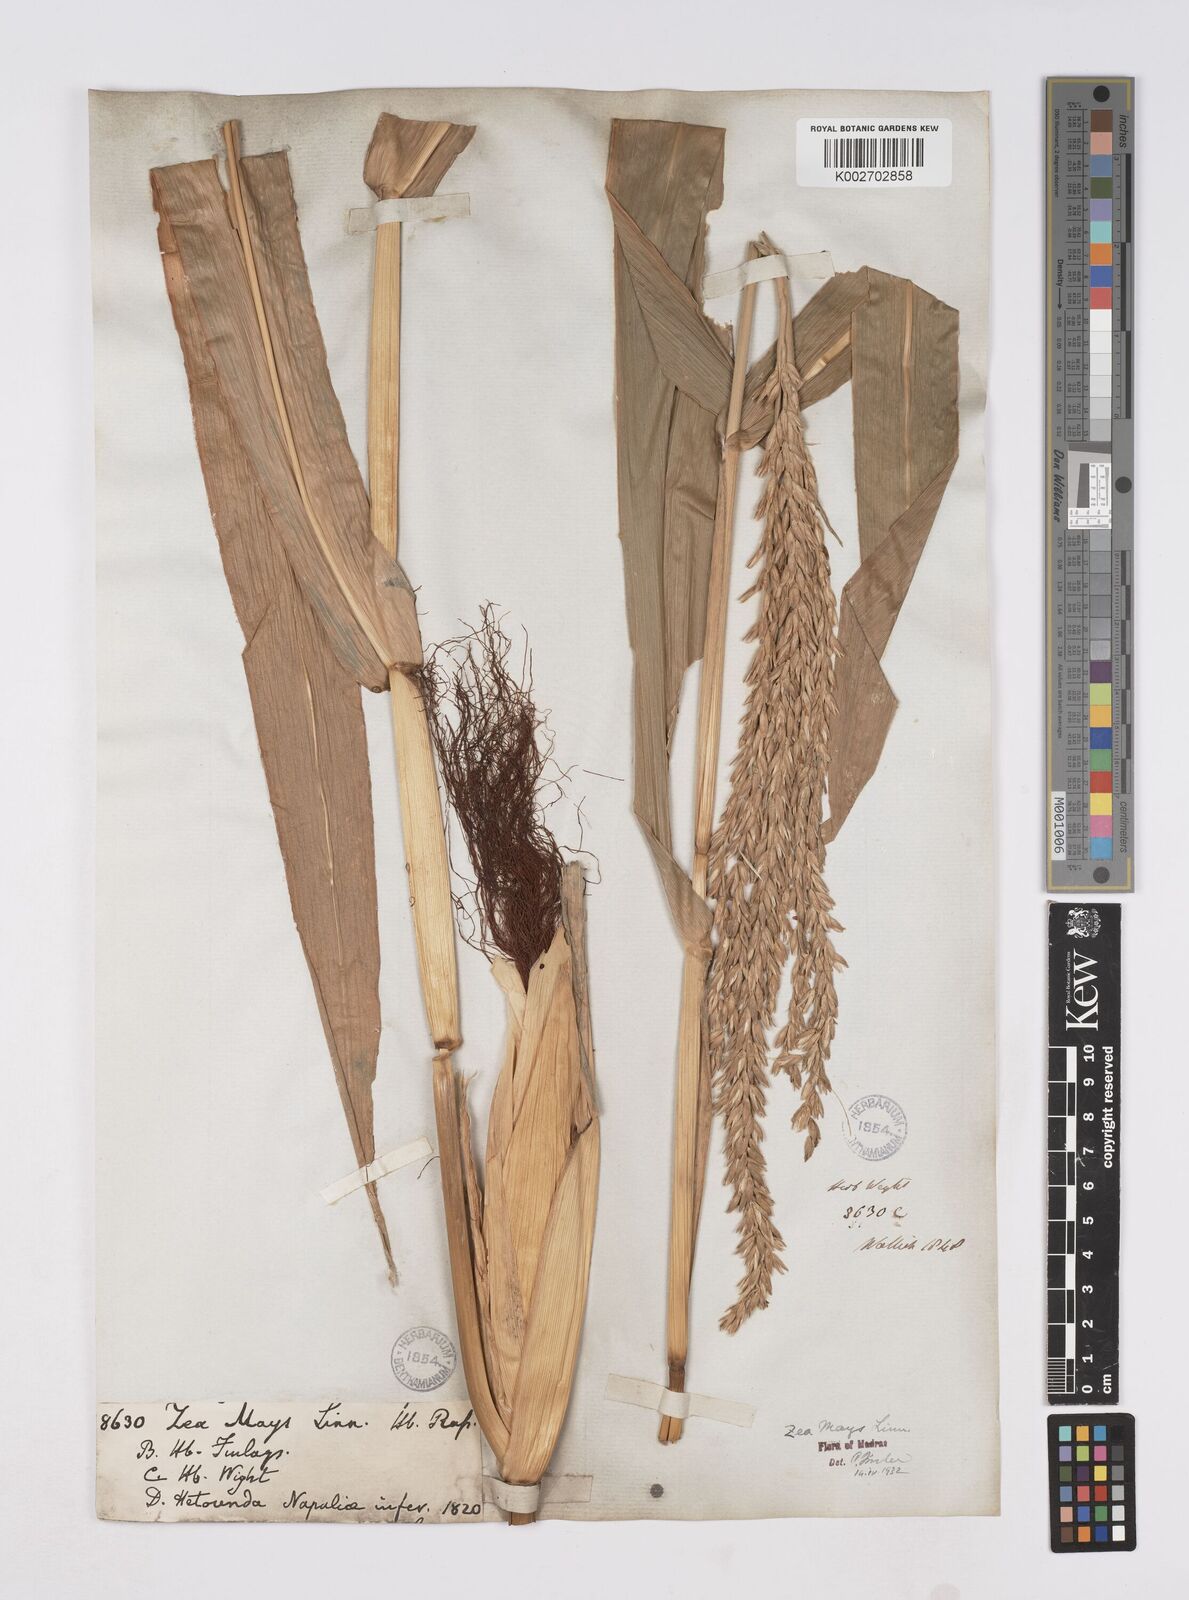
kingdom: Plantae
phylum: Tracheophyta
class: Liliopsida
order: Poales
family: Poaceae
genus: Zea
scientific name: Zea mays
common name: Maize
